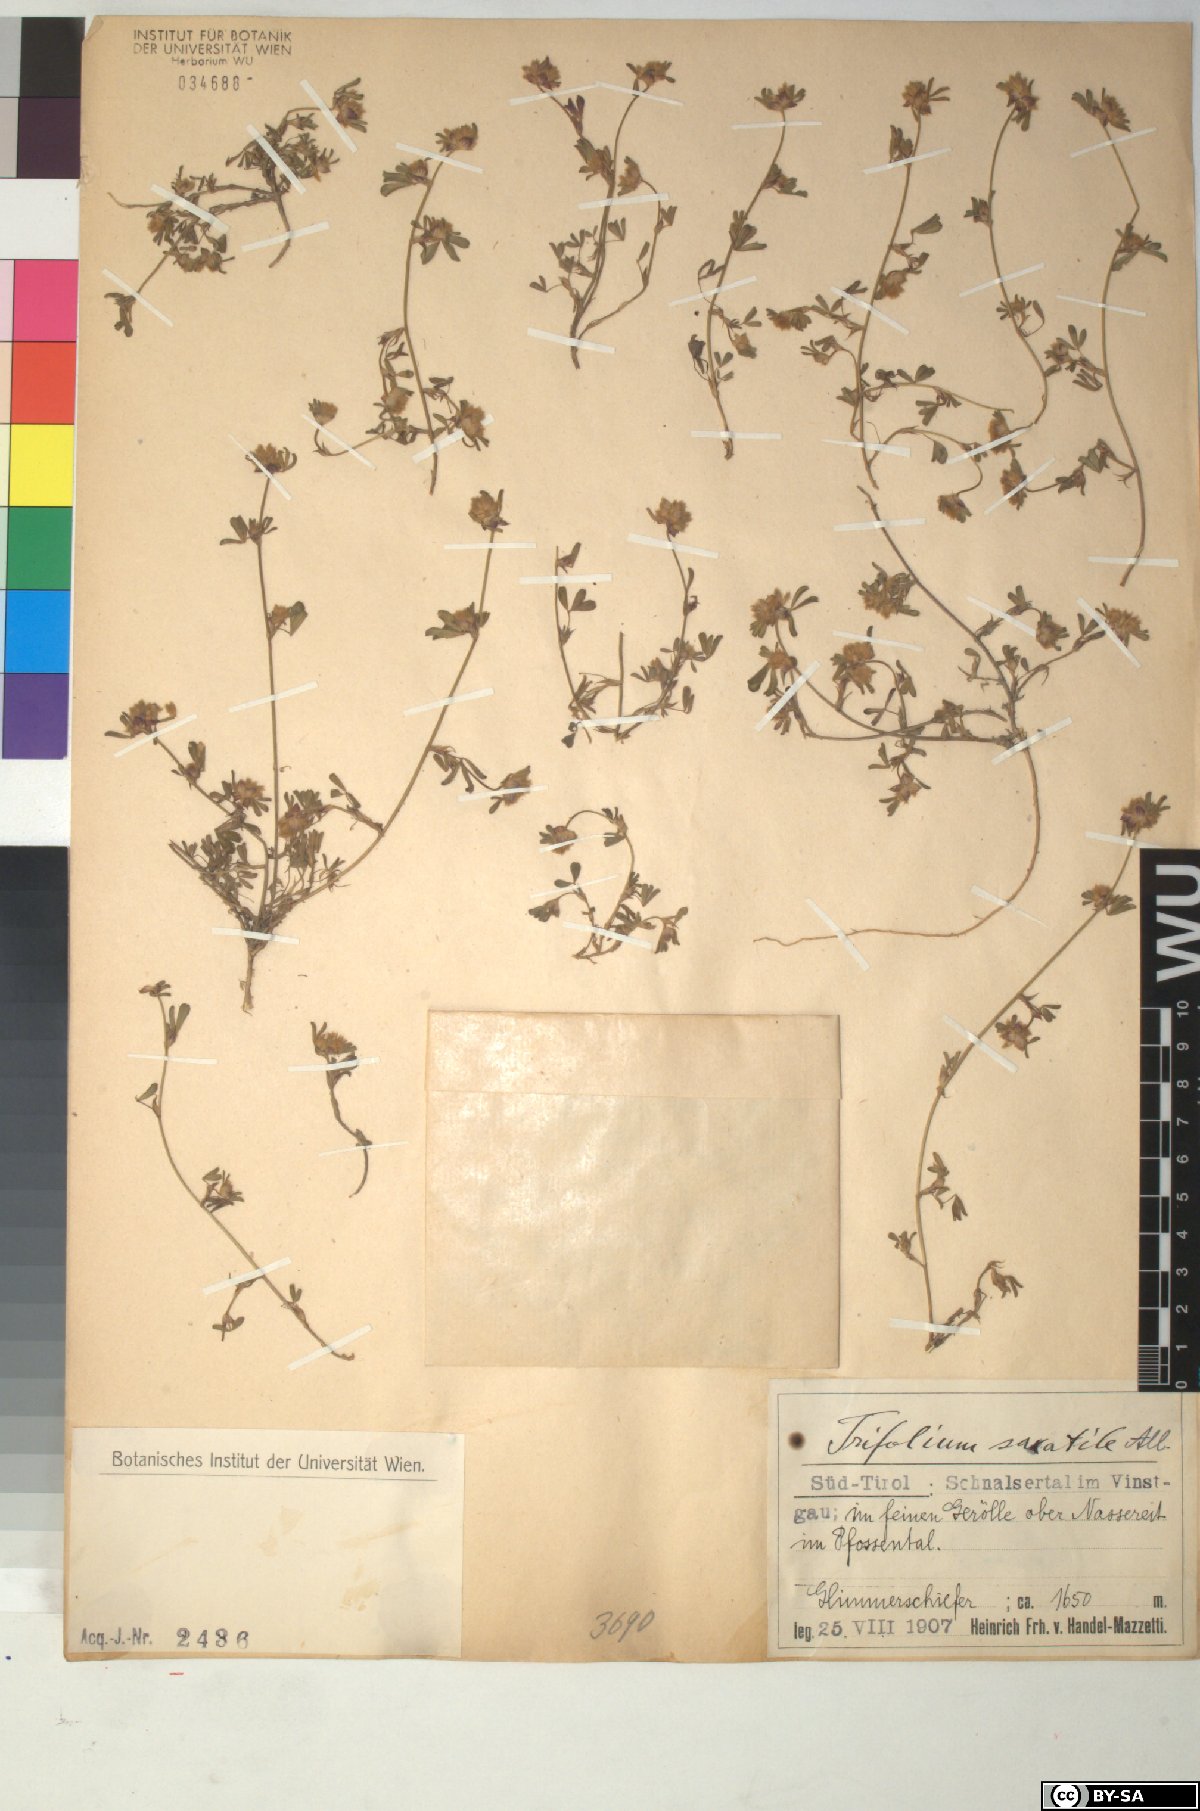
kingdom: Plantae
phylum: Tracheophyta
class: Magnoliopsida
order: Fabales
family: Fabaceae
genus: Trifolium
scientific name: Trifolium saxatile
